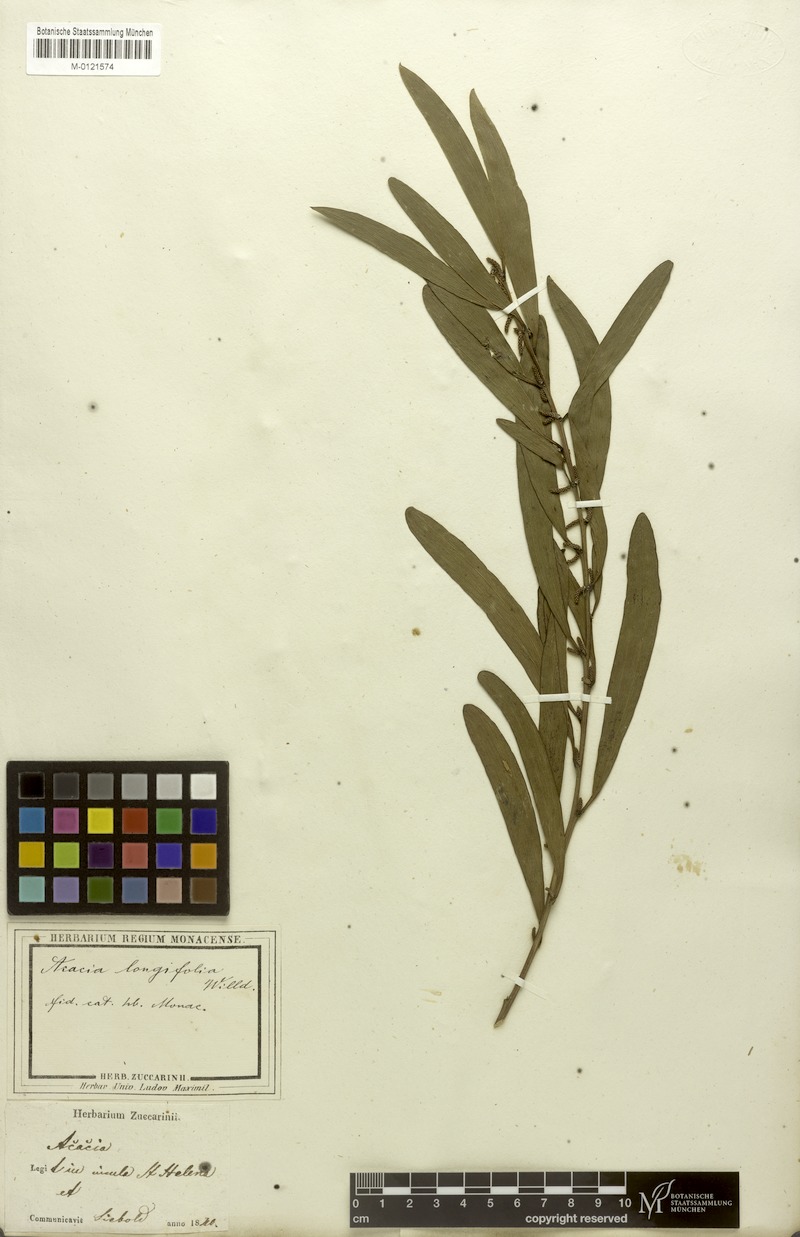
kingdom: Plantae
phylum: Tracheophyta
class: Magnoliopsida
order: Fabales
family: Fabaceae
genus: Acacia
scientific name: Acacia longifolia
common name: Sydney golden wattle
